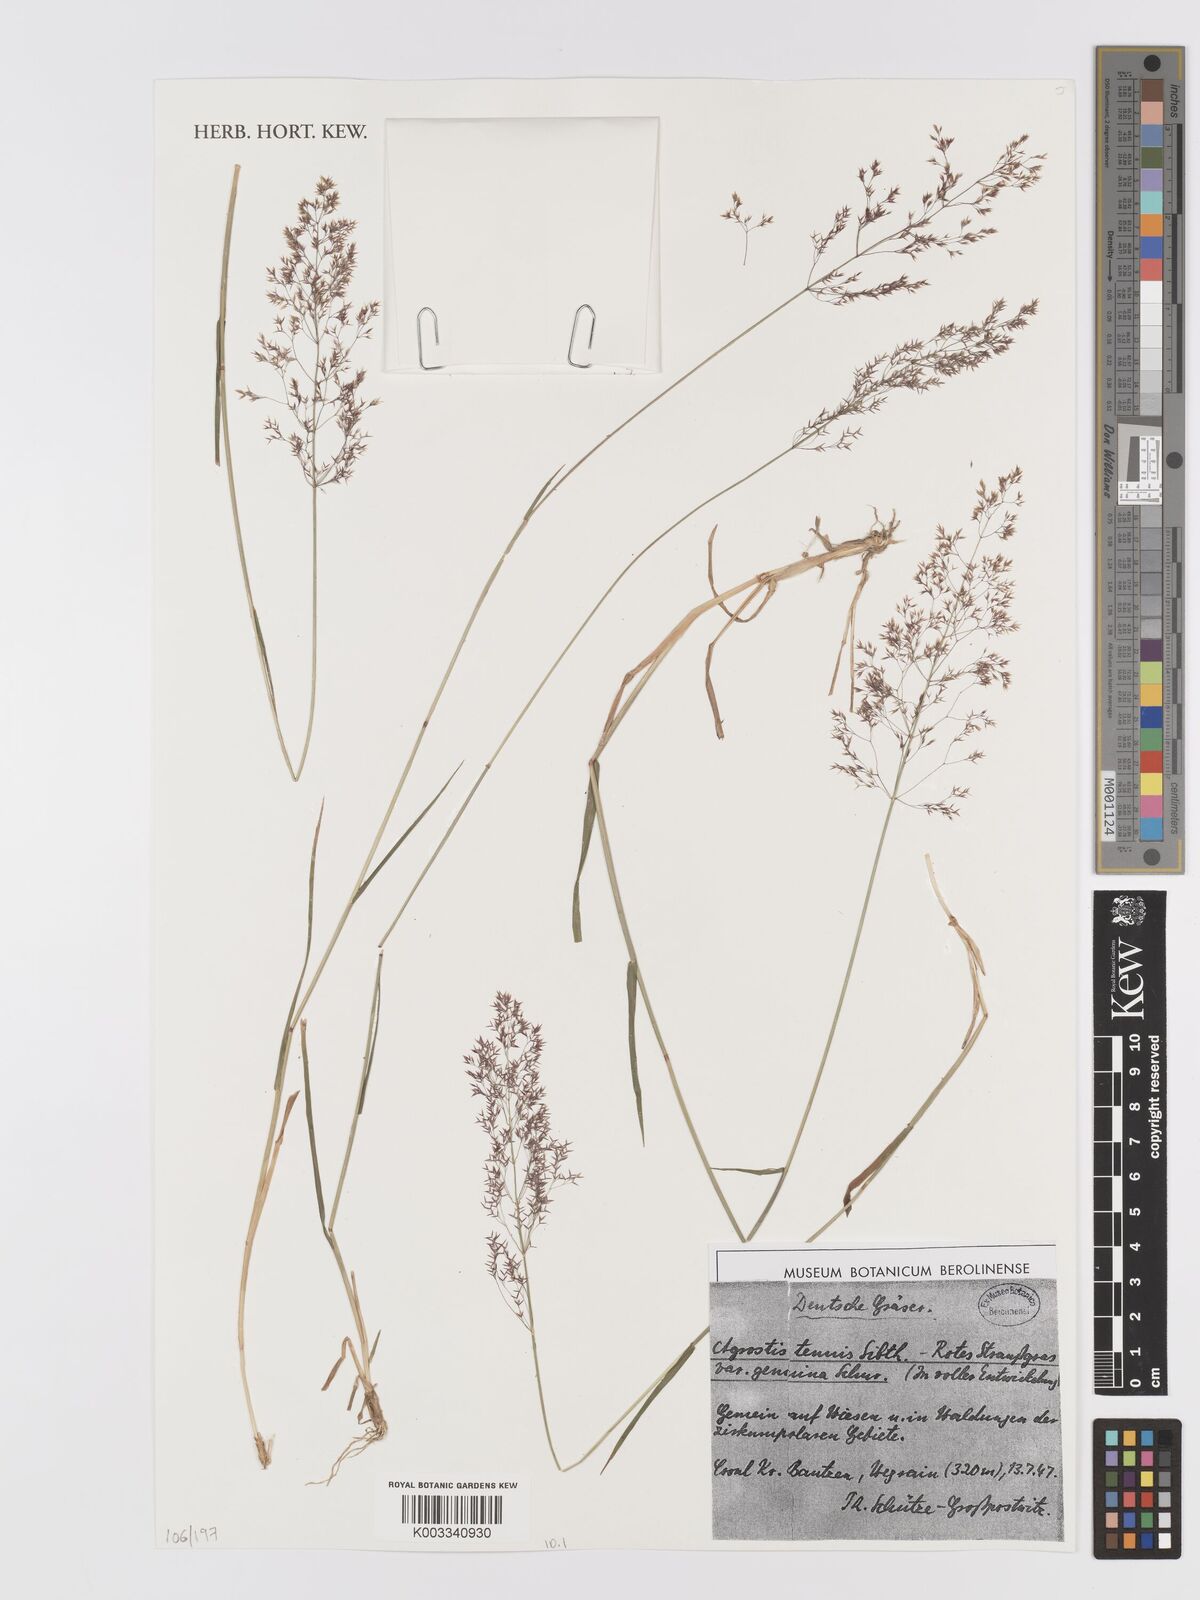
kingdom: Plantae
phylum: Tracheophyta
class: Liliopsida
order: Poales
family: Poaceae
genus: Agrostis
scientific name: Agrostis capillaris
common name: Colonial bentgrass
